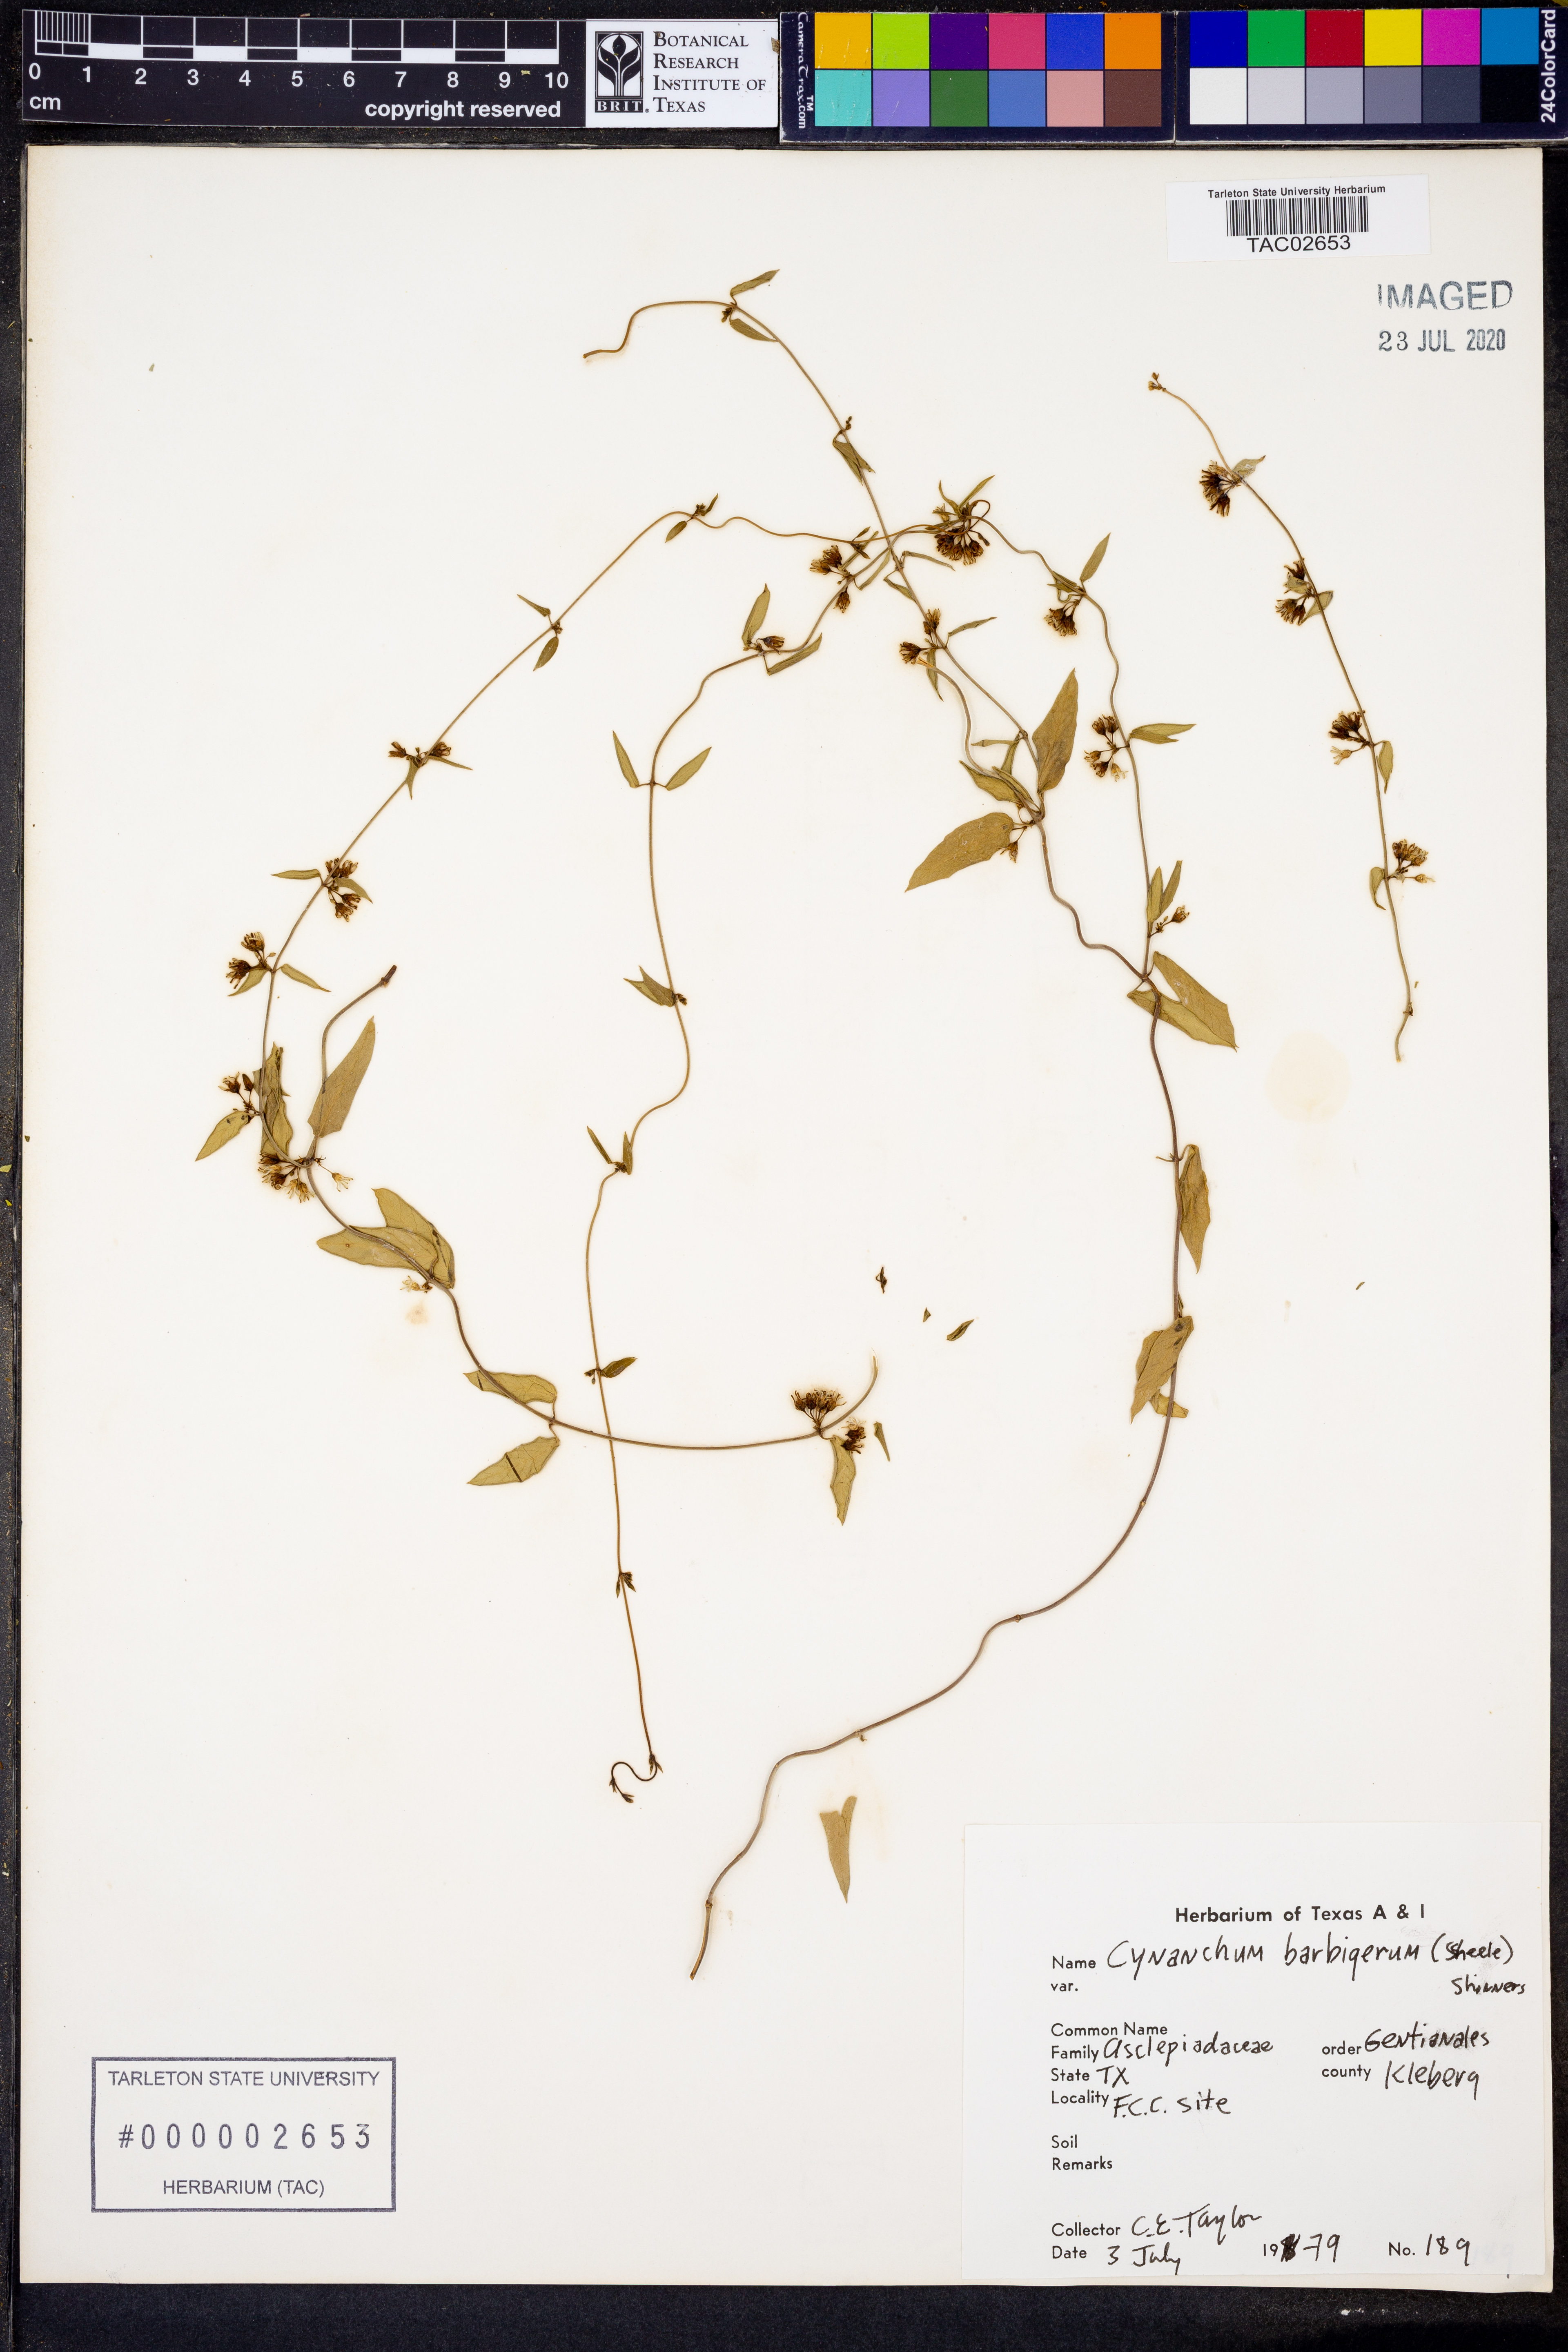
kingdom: Plantae
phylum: Tracheophyta
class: Magnoliopsida
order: Gentianales
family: Apocynaceae
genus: Metastelma
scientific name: Metastelma barbigerum
